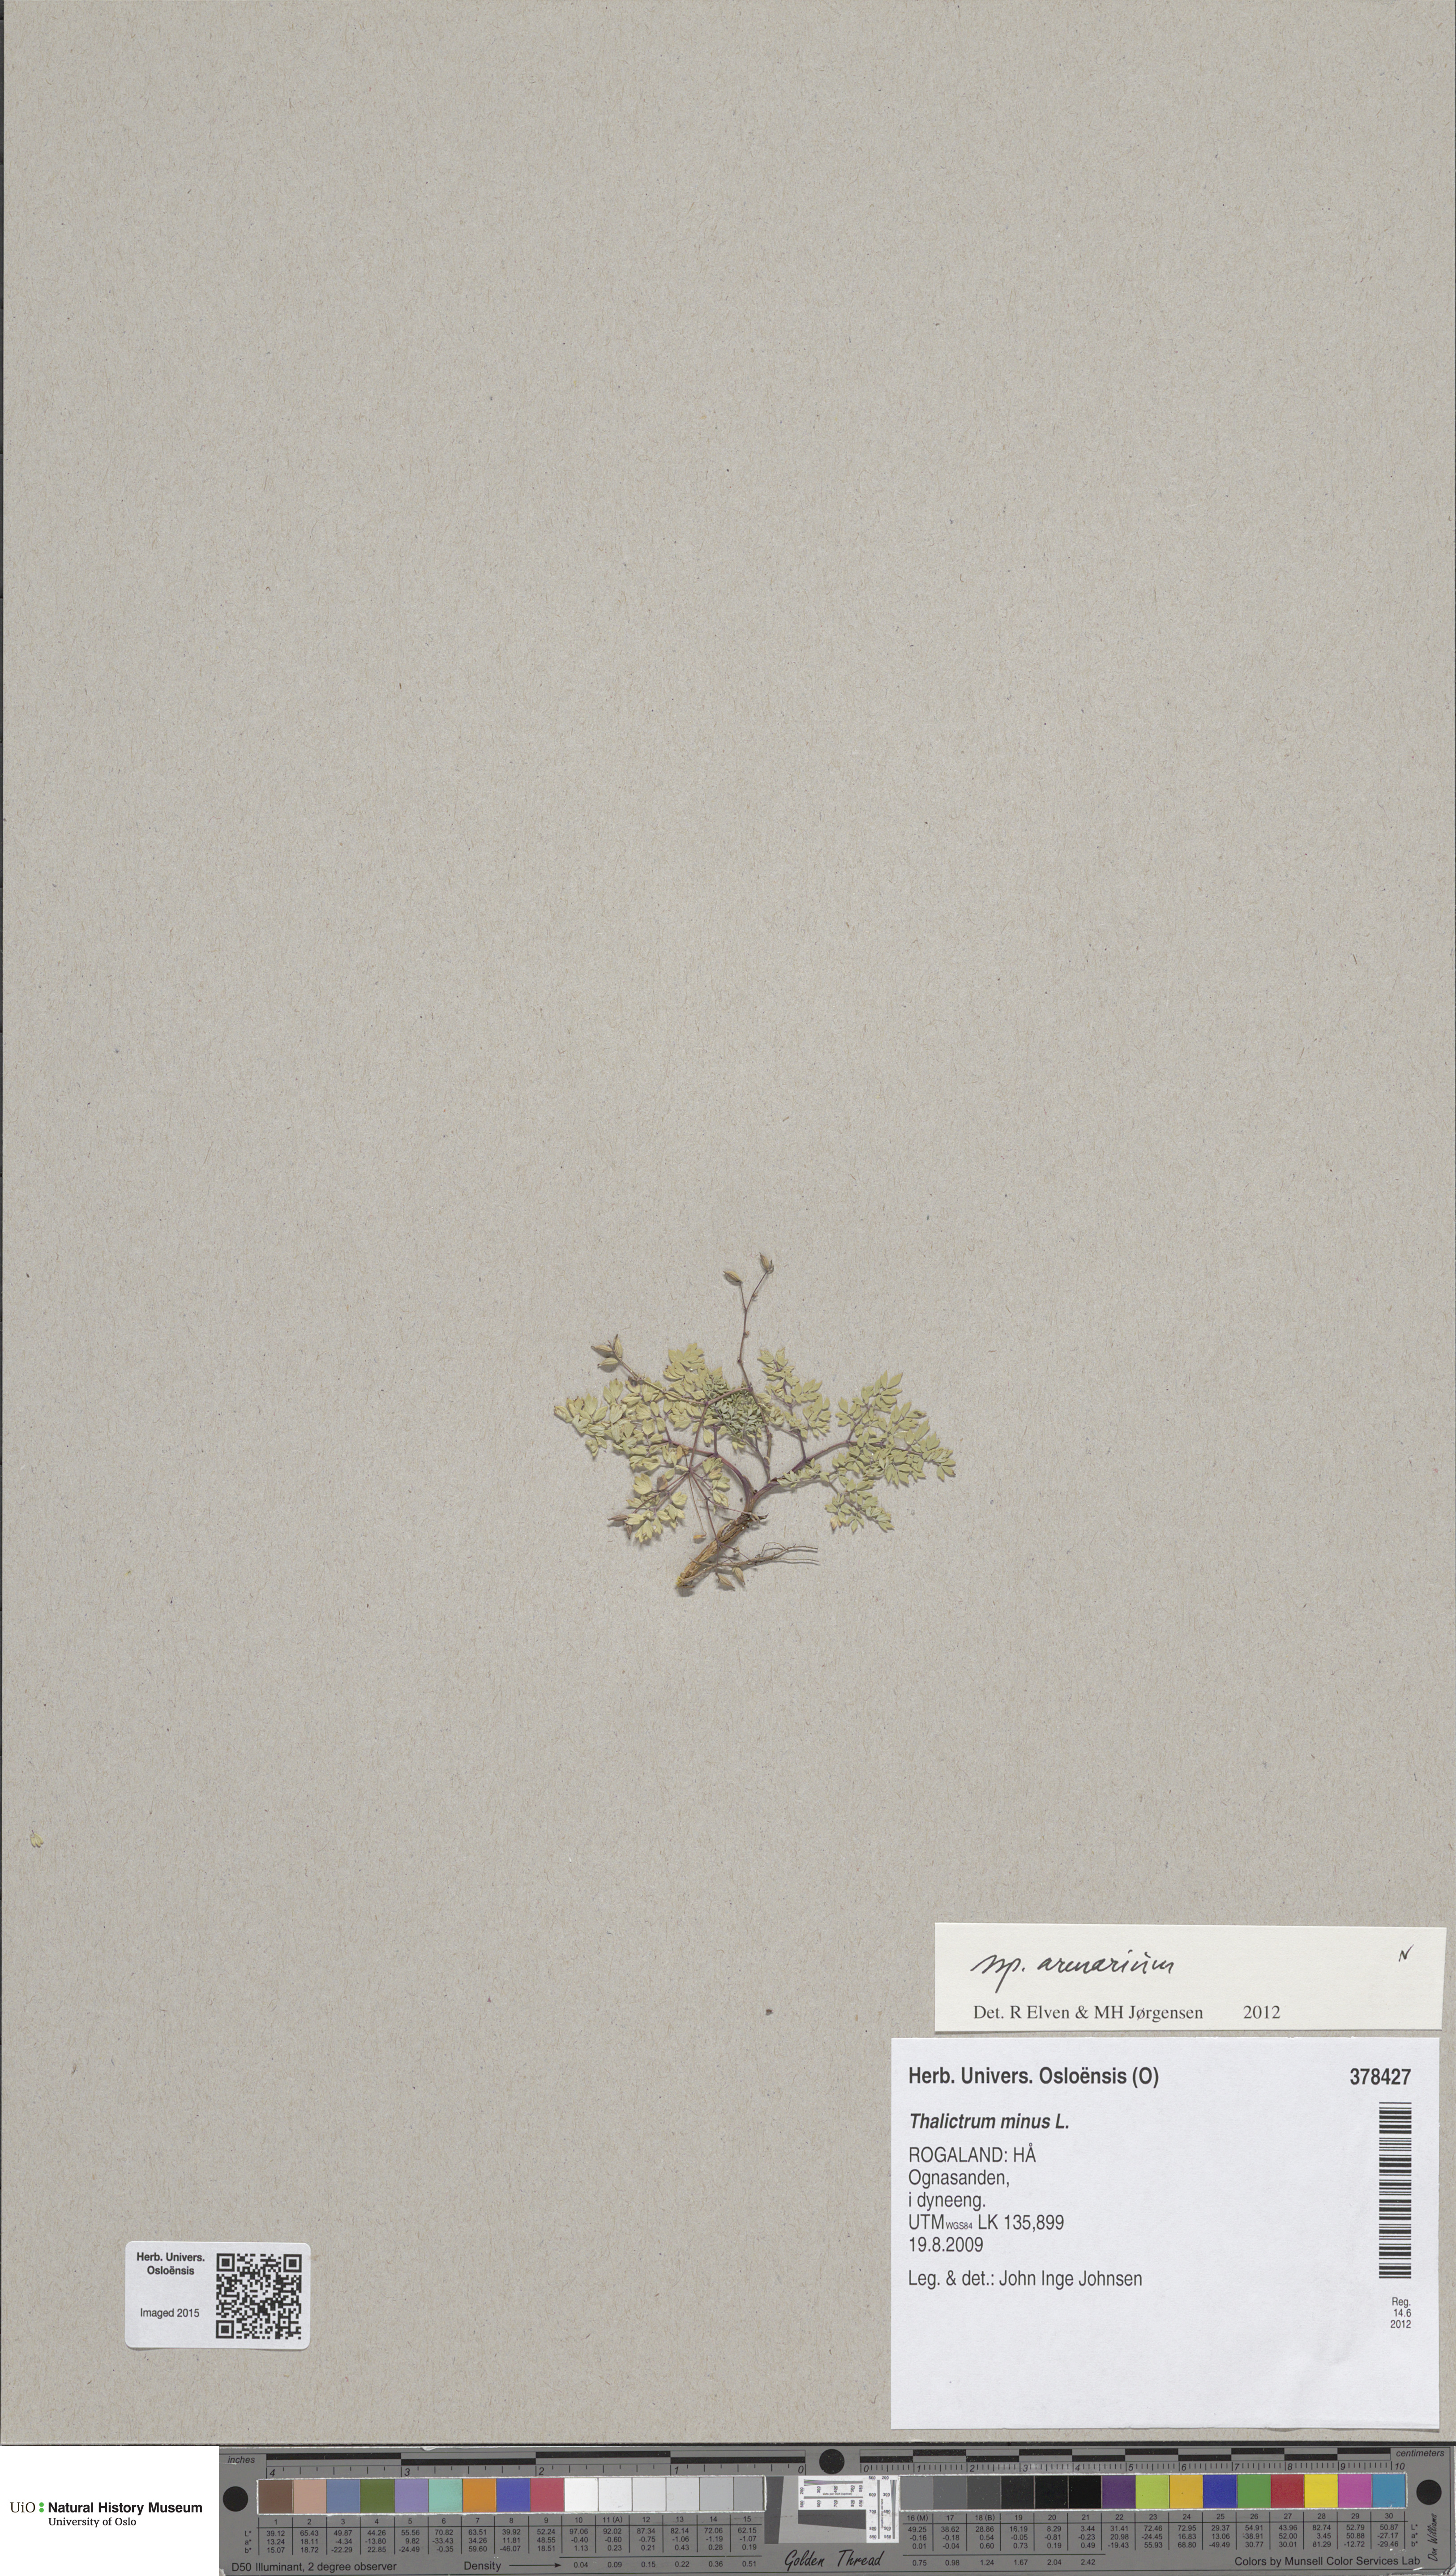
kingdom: Plantae
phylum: Tracheophyta
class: Magnoliopsida
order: Ranunculales
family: Ranunculaceae
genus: Thalictrum
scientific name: Thalictrum minus
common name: Lesser meadow-rue
